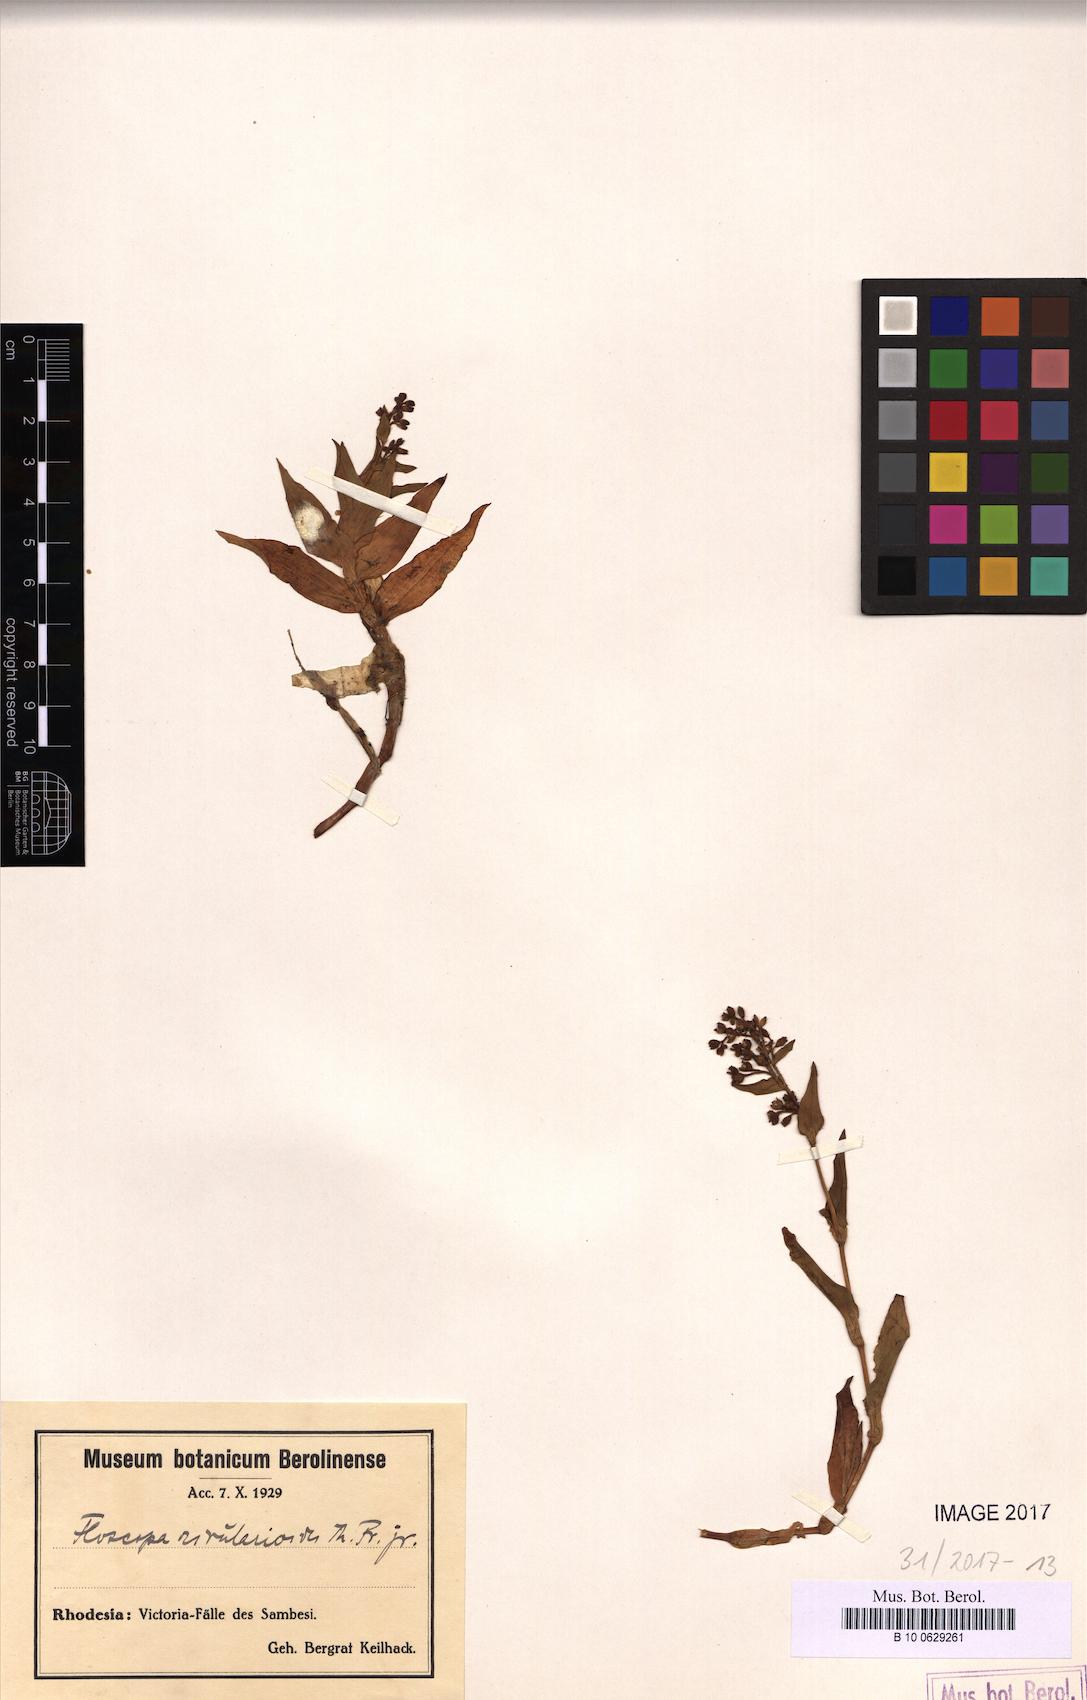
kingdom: Plantae
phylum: Tracheophyta
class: Liliopsida
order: Commelinales
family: Commelinaceae
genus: Floscopa
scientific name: Floscopa rivularioides
